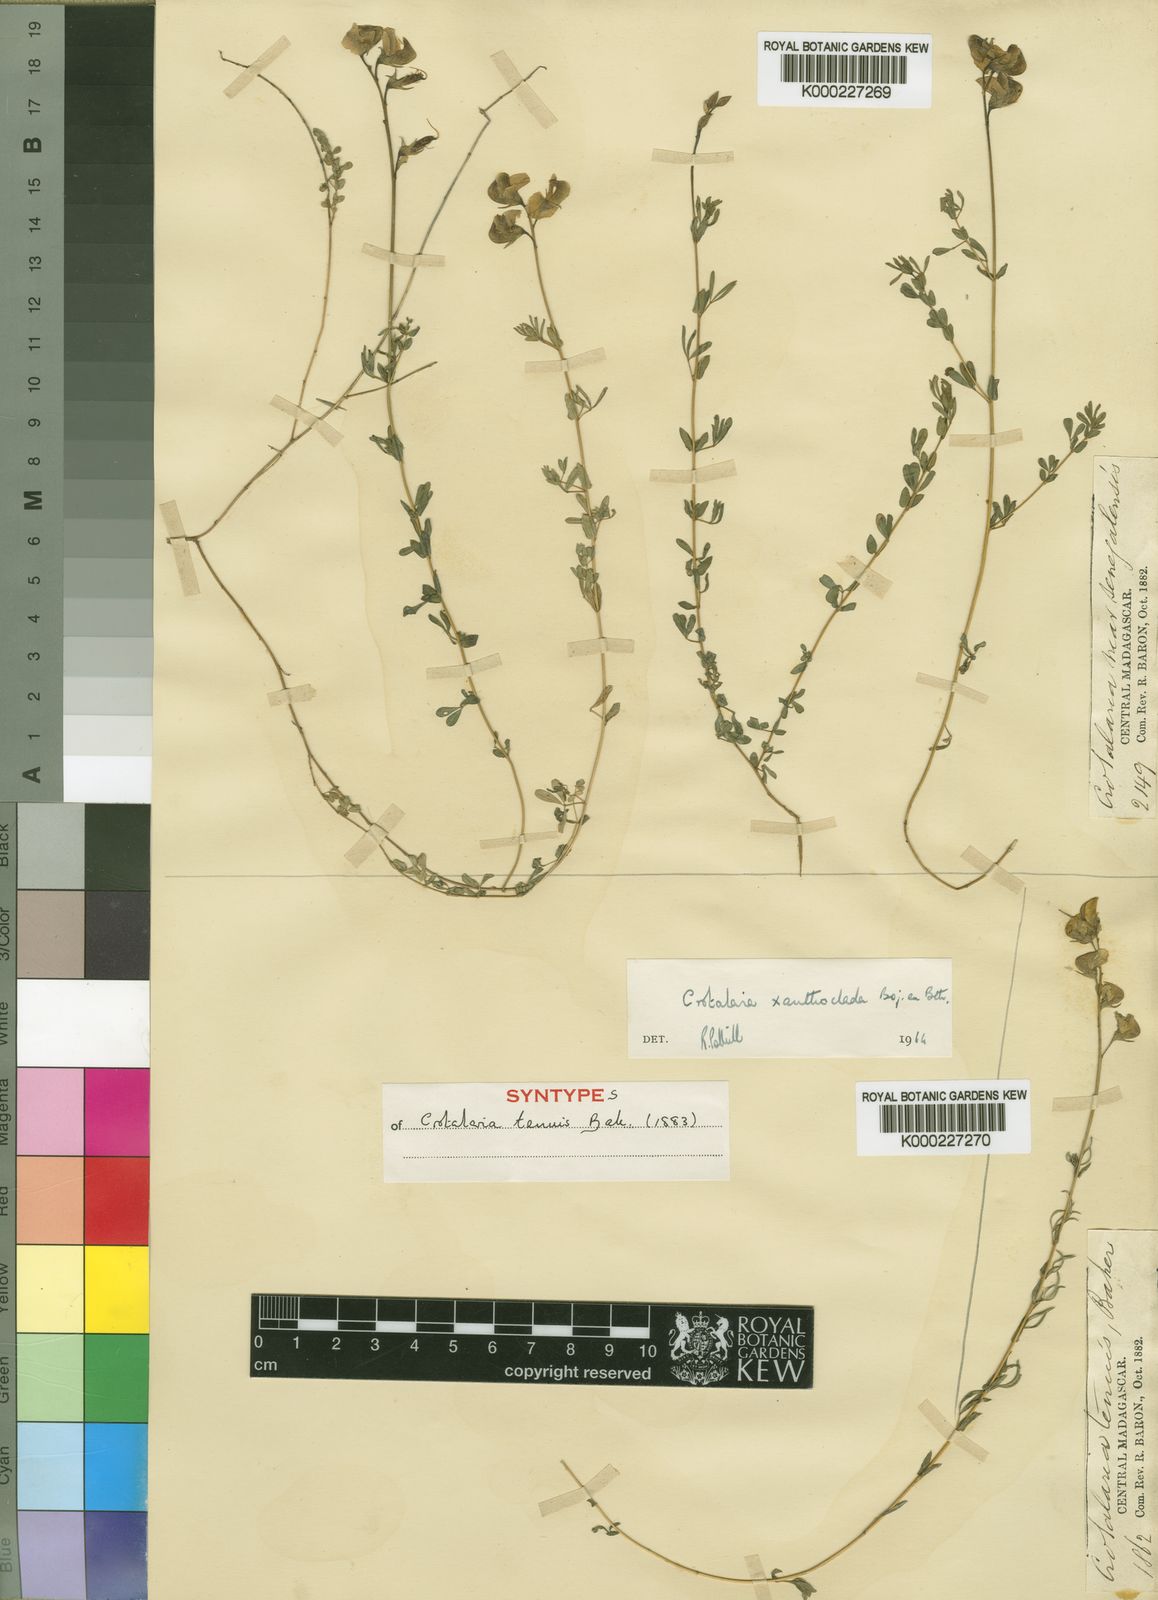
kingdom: Plantae
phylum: Tracheophyta
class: Magnoliopsida
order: Fabales
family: Fabaceae
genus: Crotalaria
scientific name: Crotalaria xanthoclada
